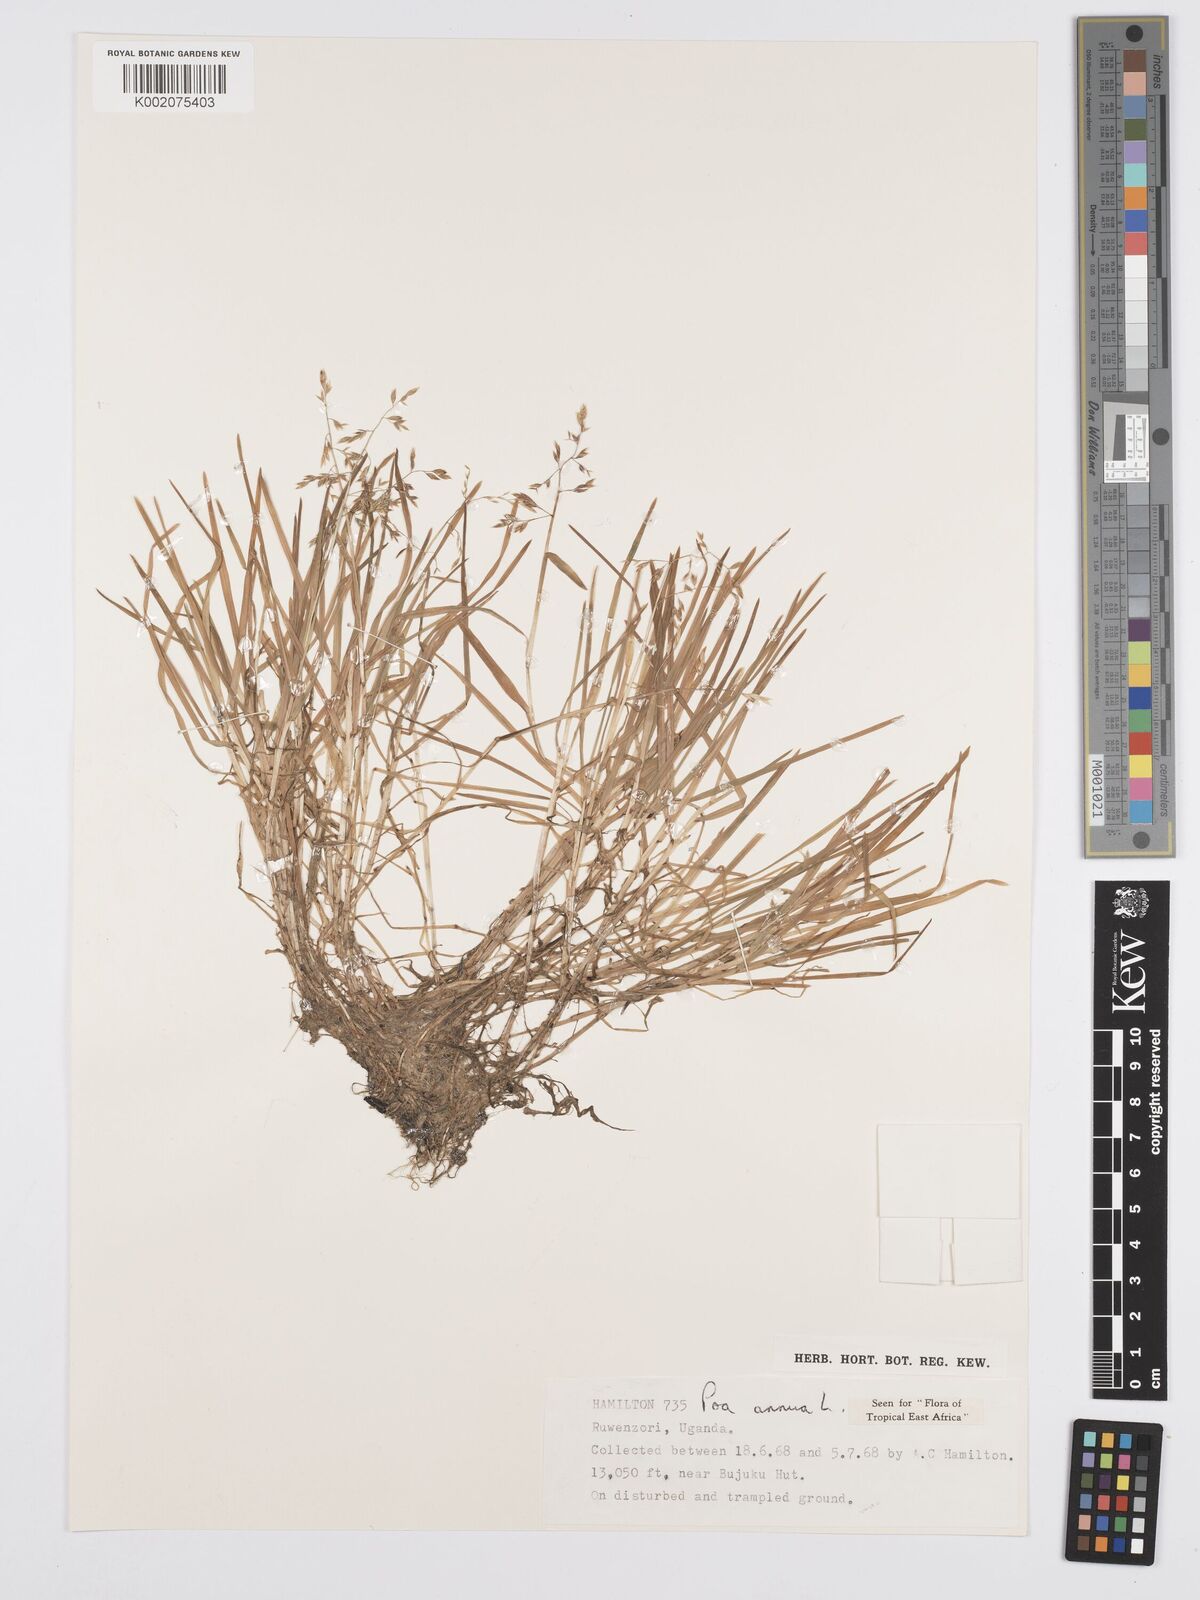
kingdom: Plantae
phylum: Tracheophyta
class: Liliopsida
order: Poales
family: Poaceae
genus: Poa
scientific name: Poa annua
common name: Annual bluegrass
